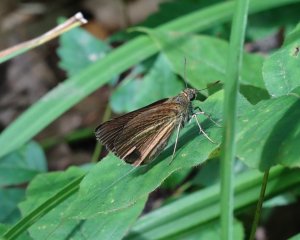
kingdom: Animalia
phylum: Arthropoda
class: Insecta
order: Lepidoptera
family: Hesperiidae
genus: Euphyes
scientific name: Euphyes dukesi
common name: Dukes' Skipper
